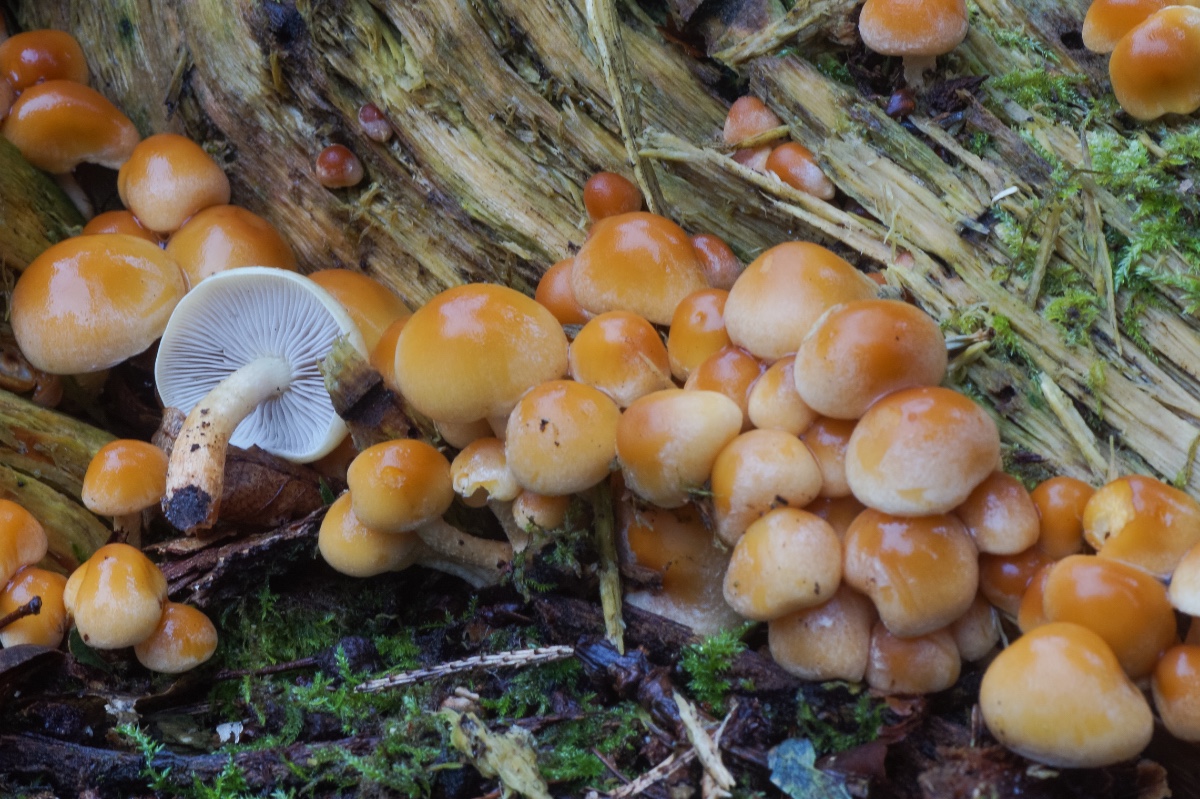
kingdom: Fungi
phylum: Basidiomycota
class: Agaricomycetes
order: Agaricales
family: Strophariaceae
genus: Hypholoma
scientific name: Hypholoma capnoides
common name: gran-svovlhat
